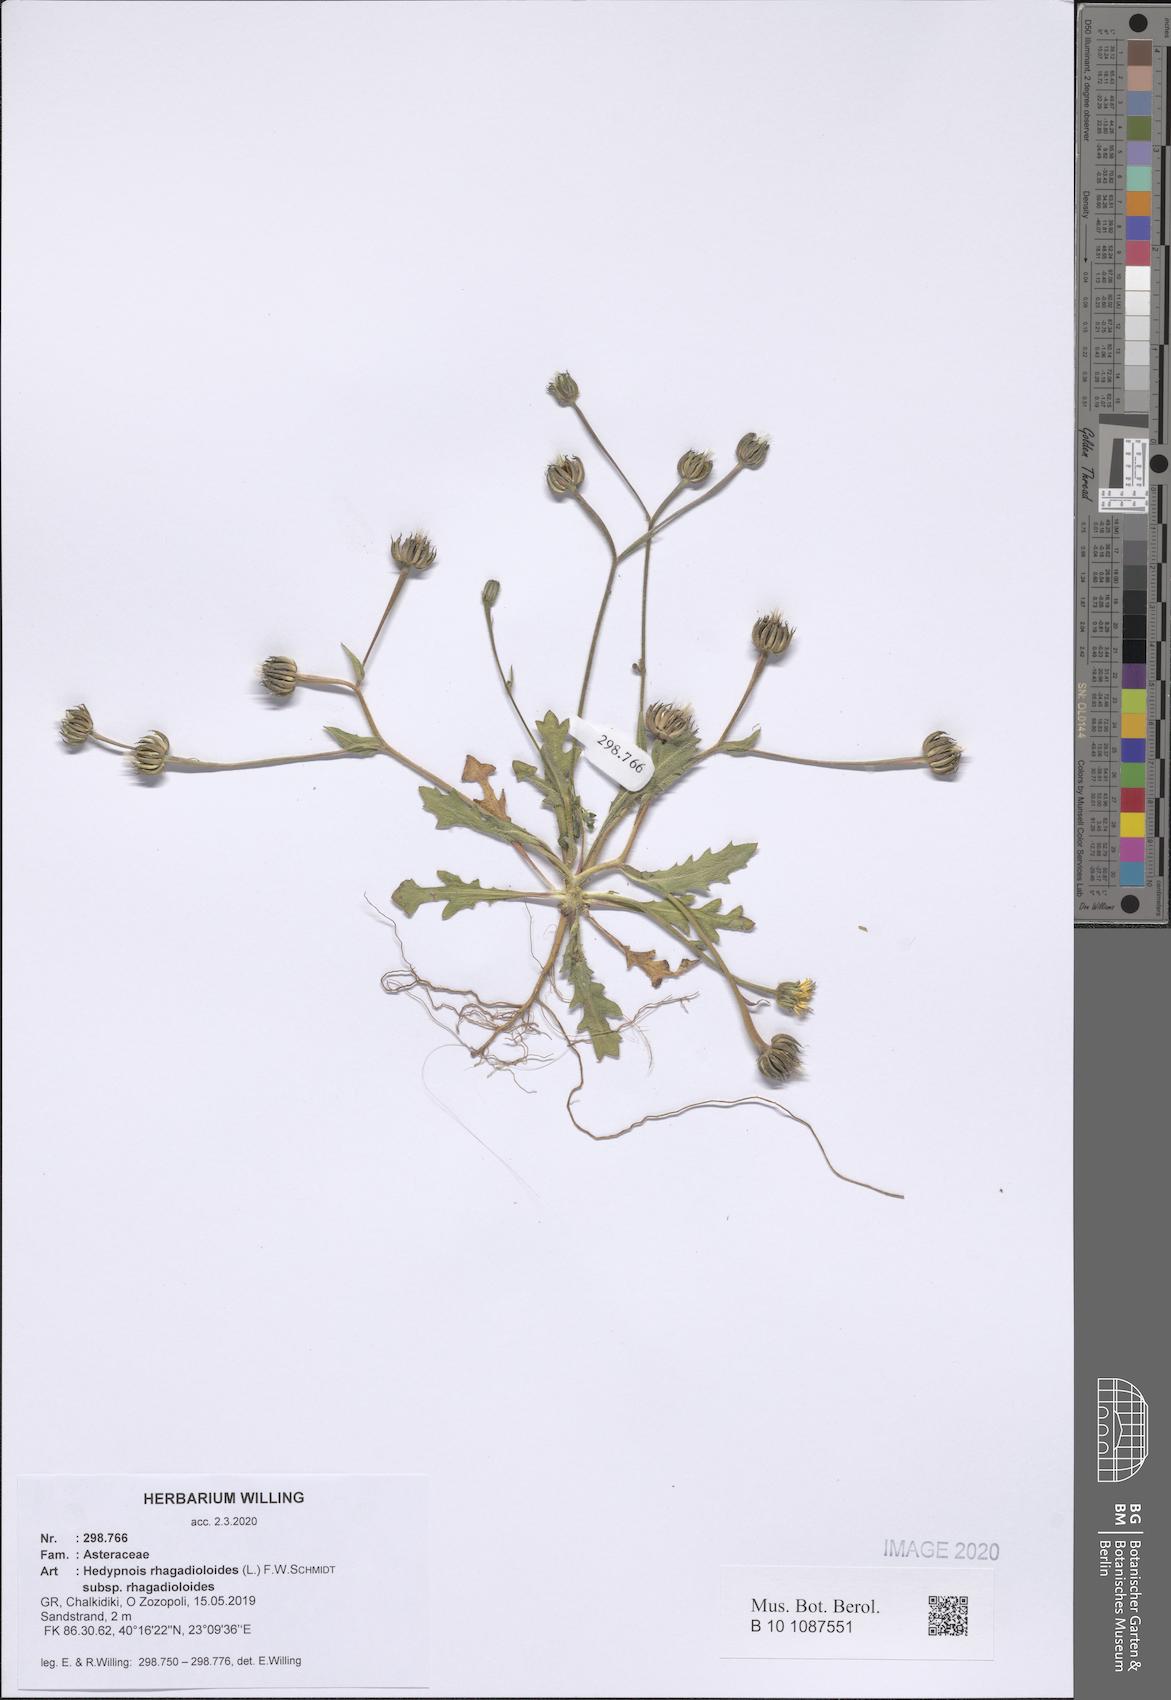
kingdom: Plantae
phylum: Tracheophyta
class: Magnoliopsida
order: Asterales
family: Asteraceae
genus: Hedypnois
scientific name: Hedypnois rhagadioloides
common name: Cretan weed
